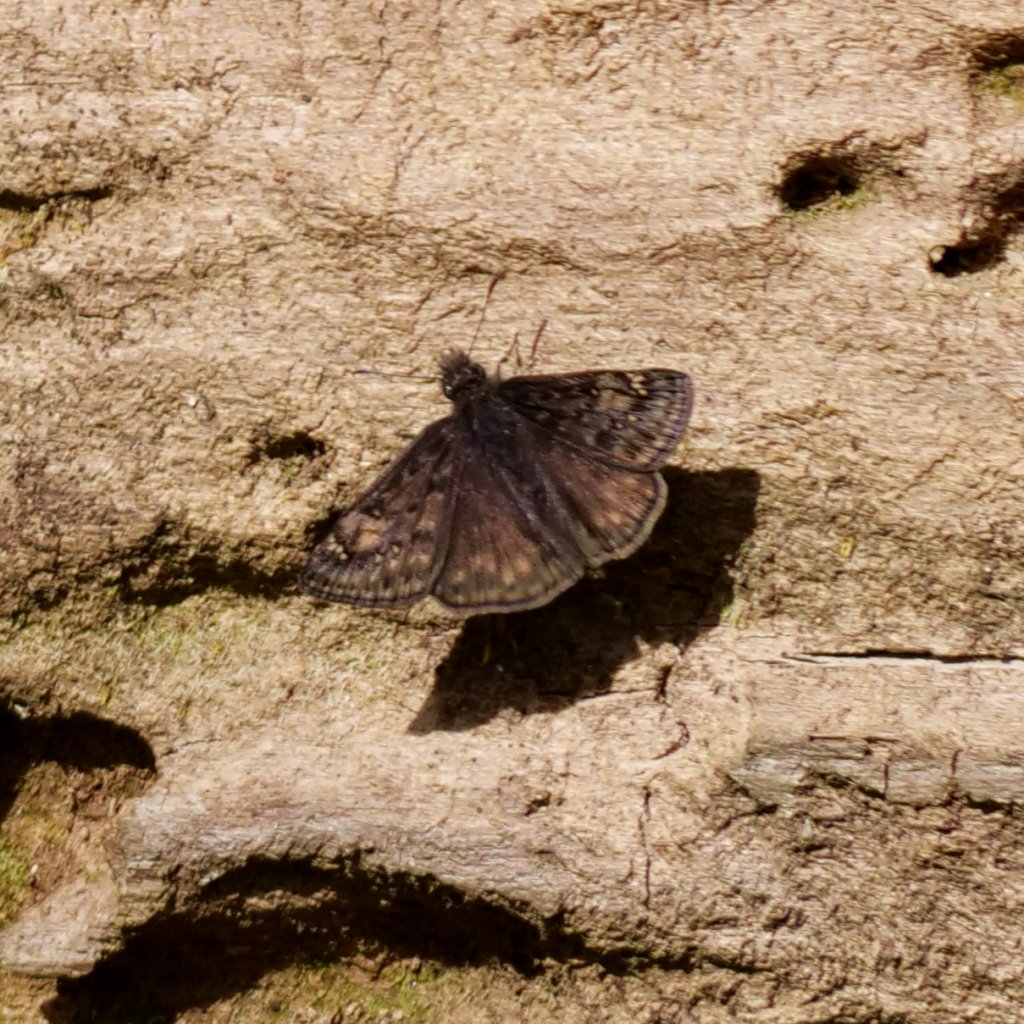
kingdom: Animalia
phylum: Arthropoda
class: Insecta
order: Lepidoptera
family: Hesperiidae
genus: Gesta
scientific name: Gesta
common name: Juvenal's Duskywing
